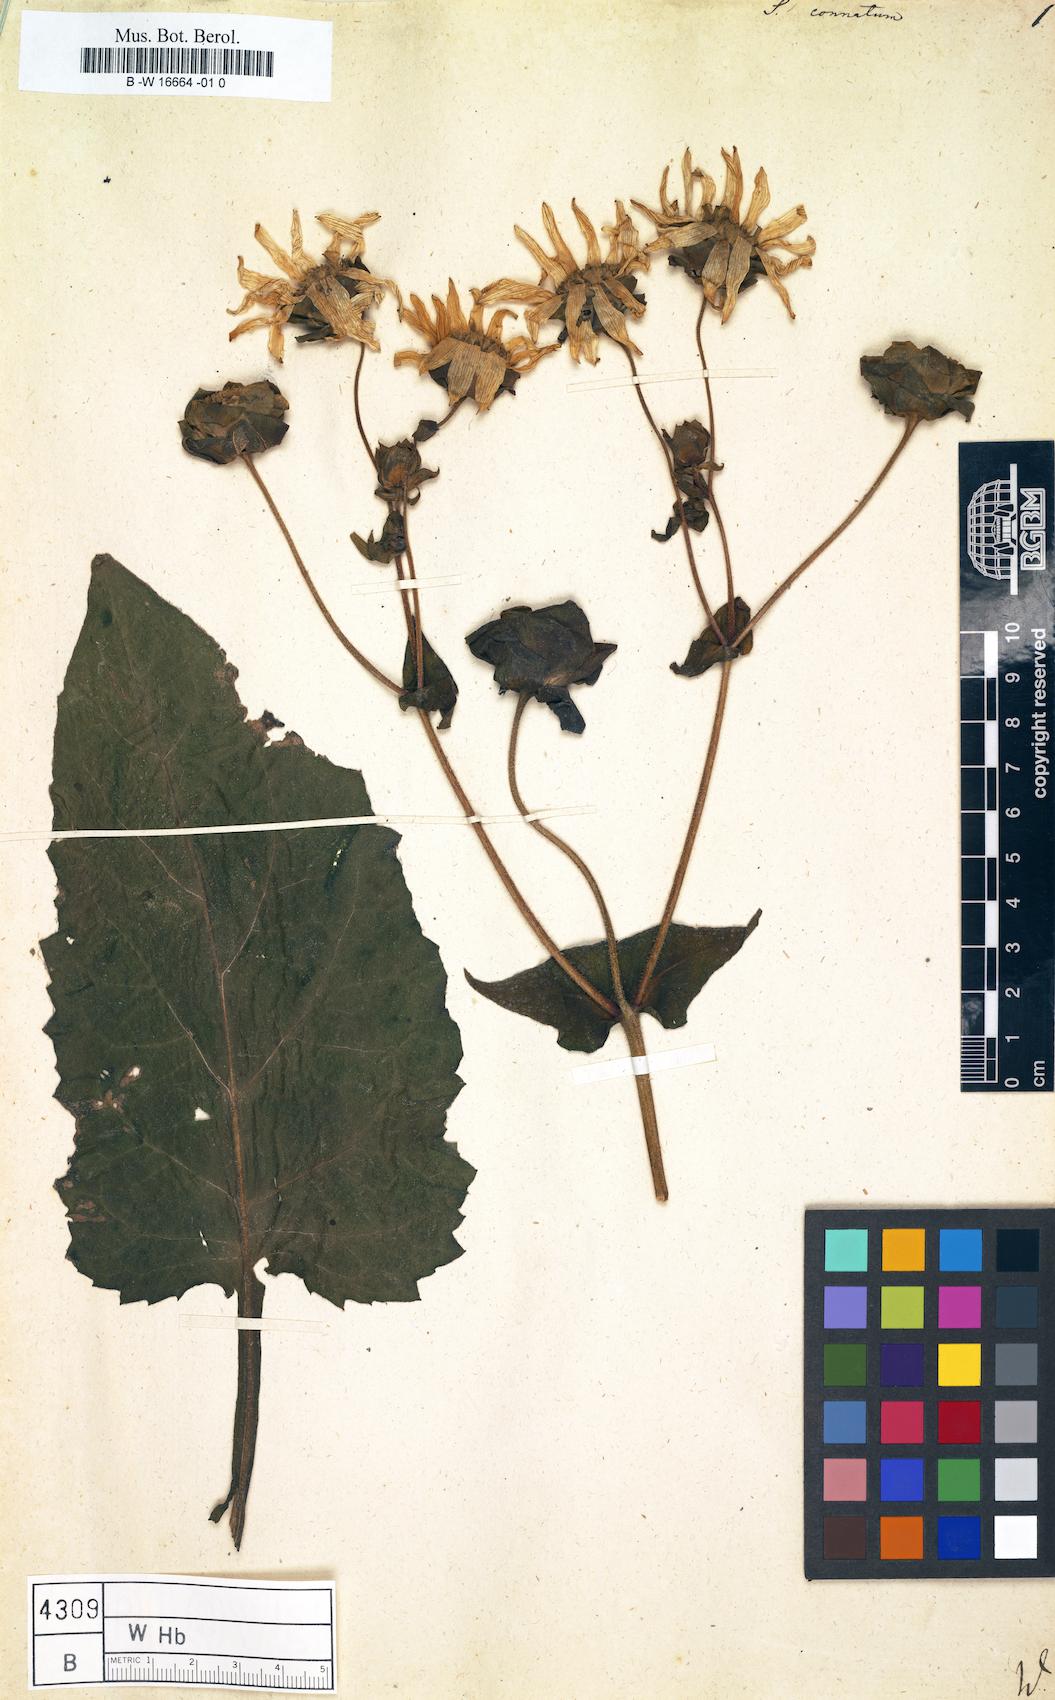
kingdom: Plantae
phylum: Tracheophyta
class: Magnoliopsida
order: Asterales
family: Asteraceae
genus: Silphium
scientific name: Silphium perfoliatum
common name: Cup-plant
